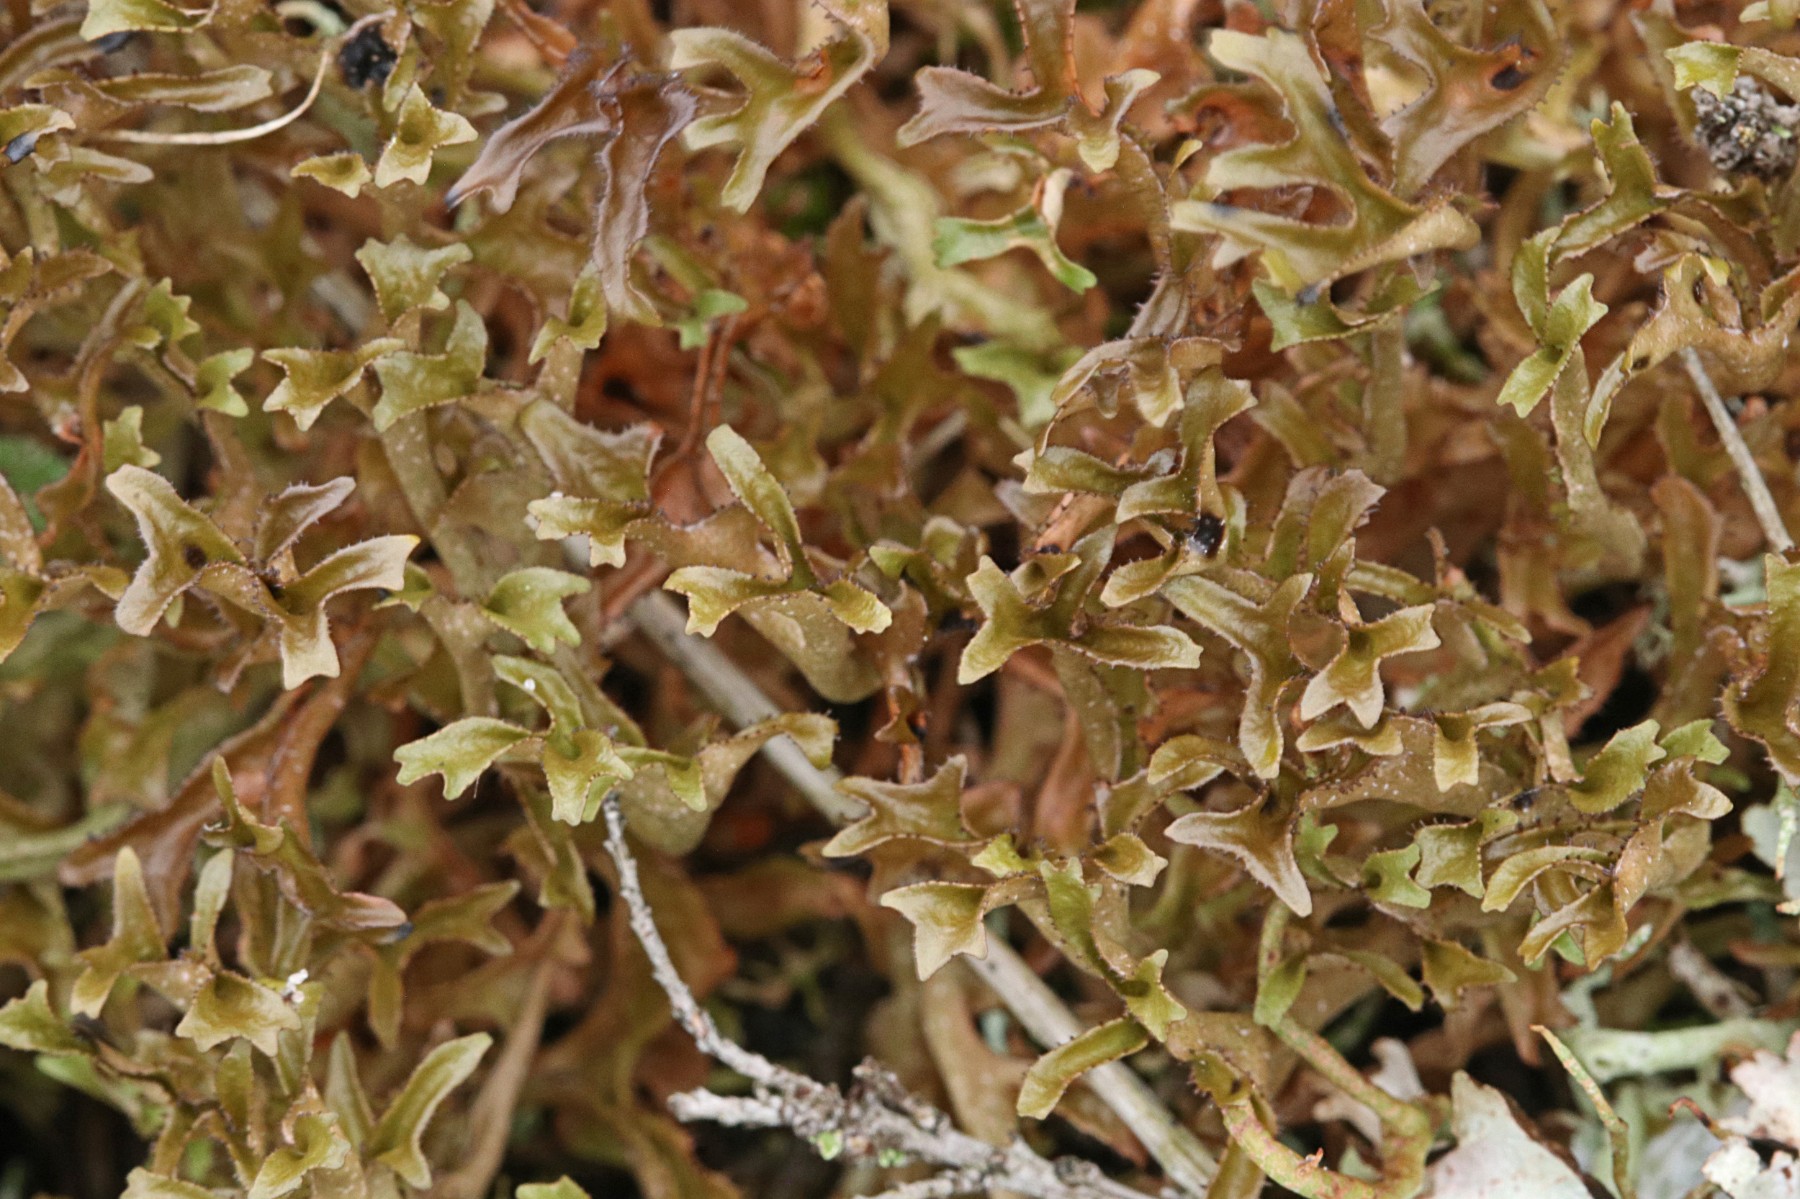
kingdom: Fungi
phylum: Ascomycota
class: Lecanoromycetes
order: Lecanorales
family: Parmeliaceae
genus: Cetraria
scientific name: Cetraria islandica
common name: islandsk kruslav
